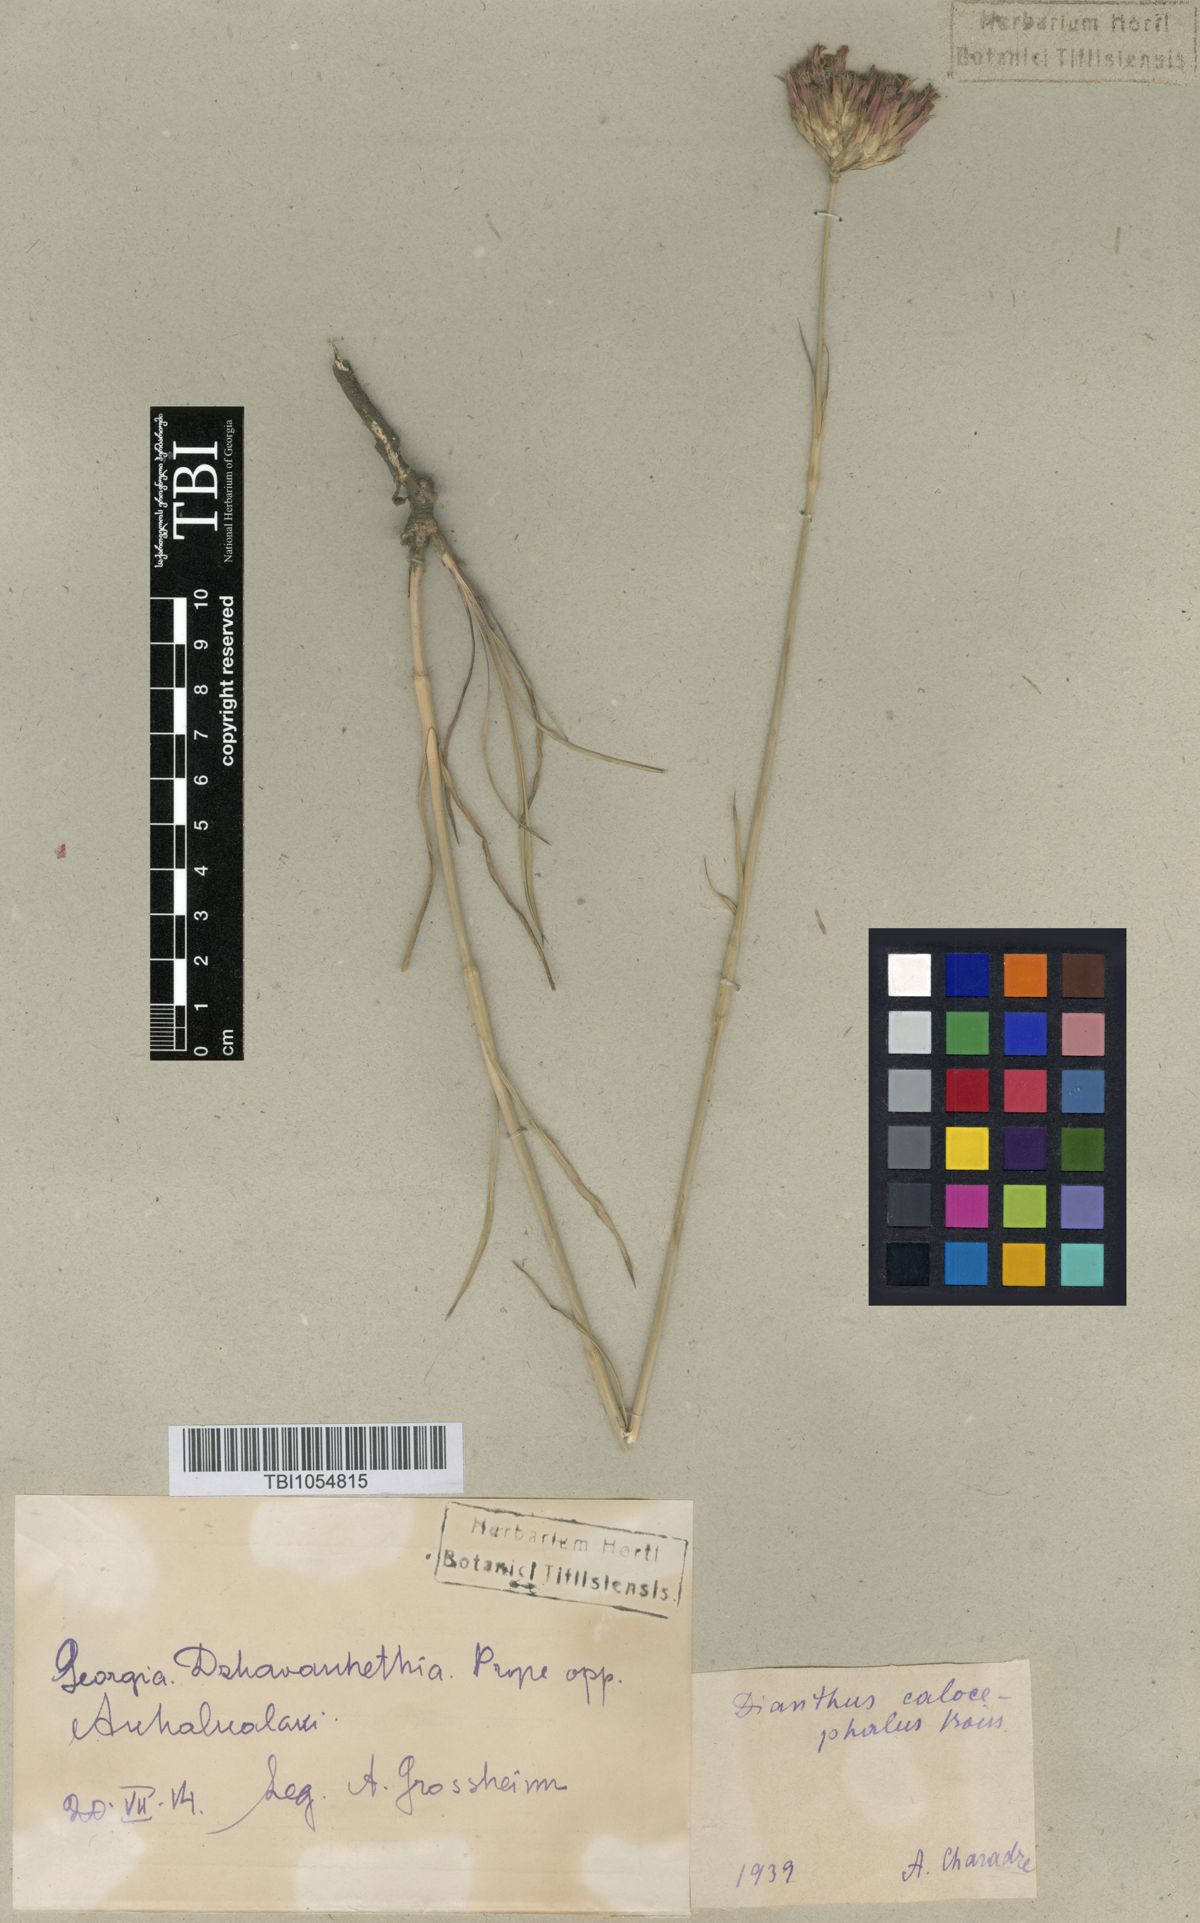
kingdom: Plantae
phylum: Tracheophyta
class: Magnoliopsida
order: Caryophyllales
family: Caryophyllaceae
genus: Dianthus
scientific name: Dianthus cruentus
